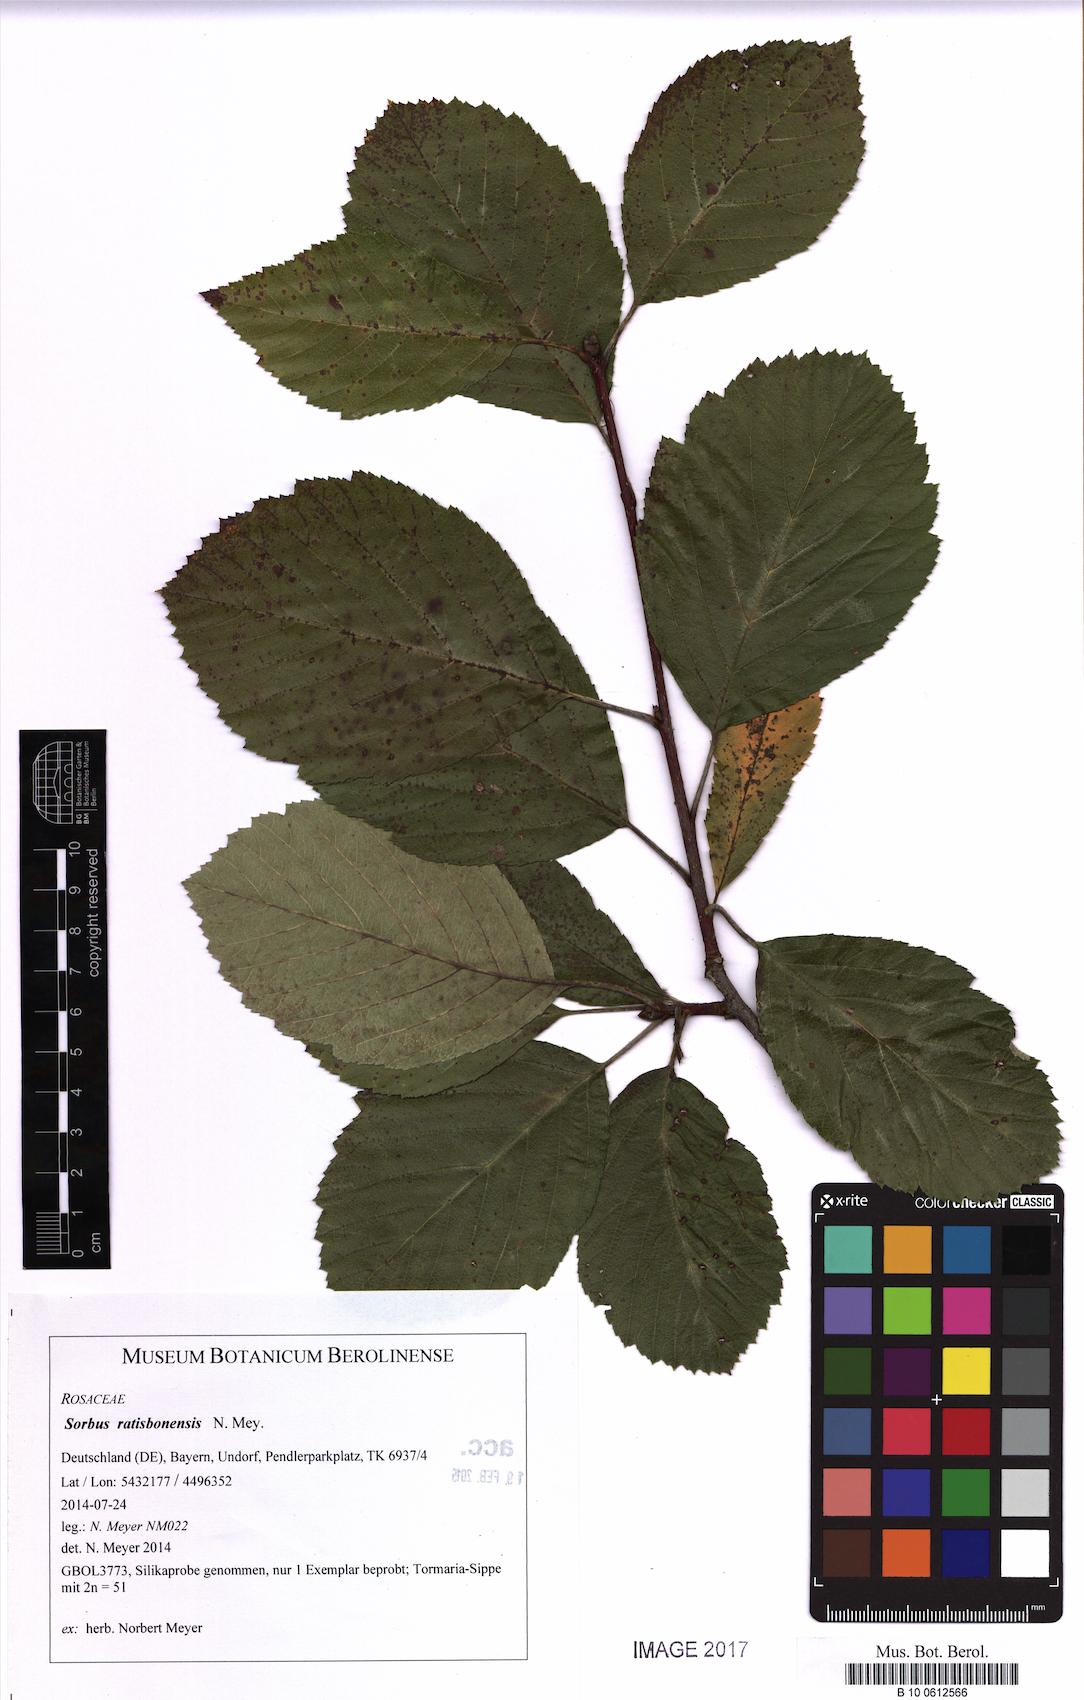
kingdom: Plantae
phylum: Tracheophyta
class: Magnoliopsida
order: Rosales
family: Rosaceae
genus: Karpatiosorbus
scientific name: Karpatiosorbus ratisbonensis
